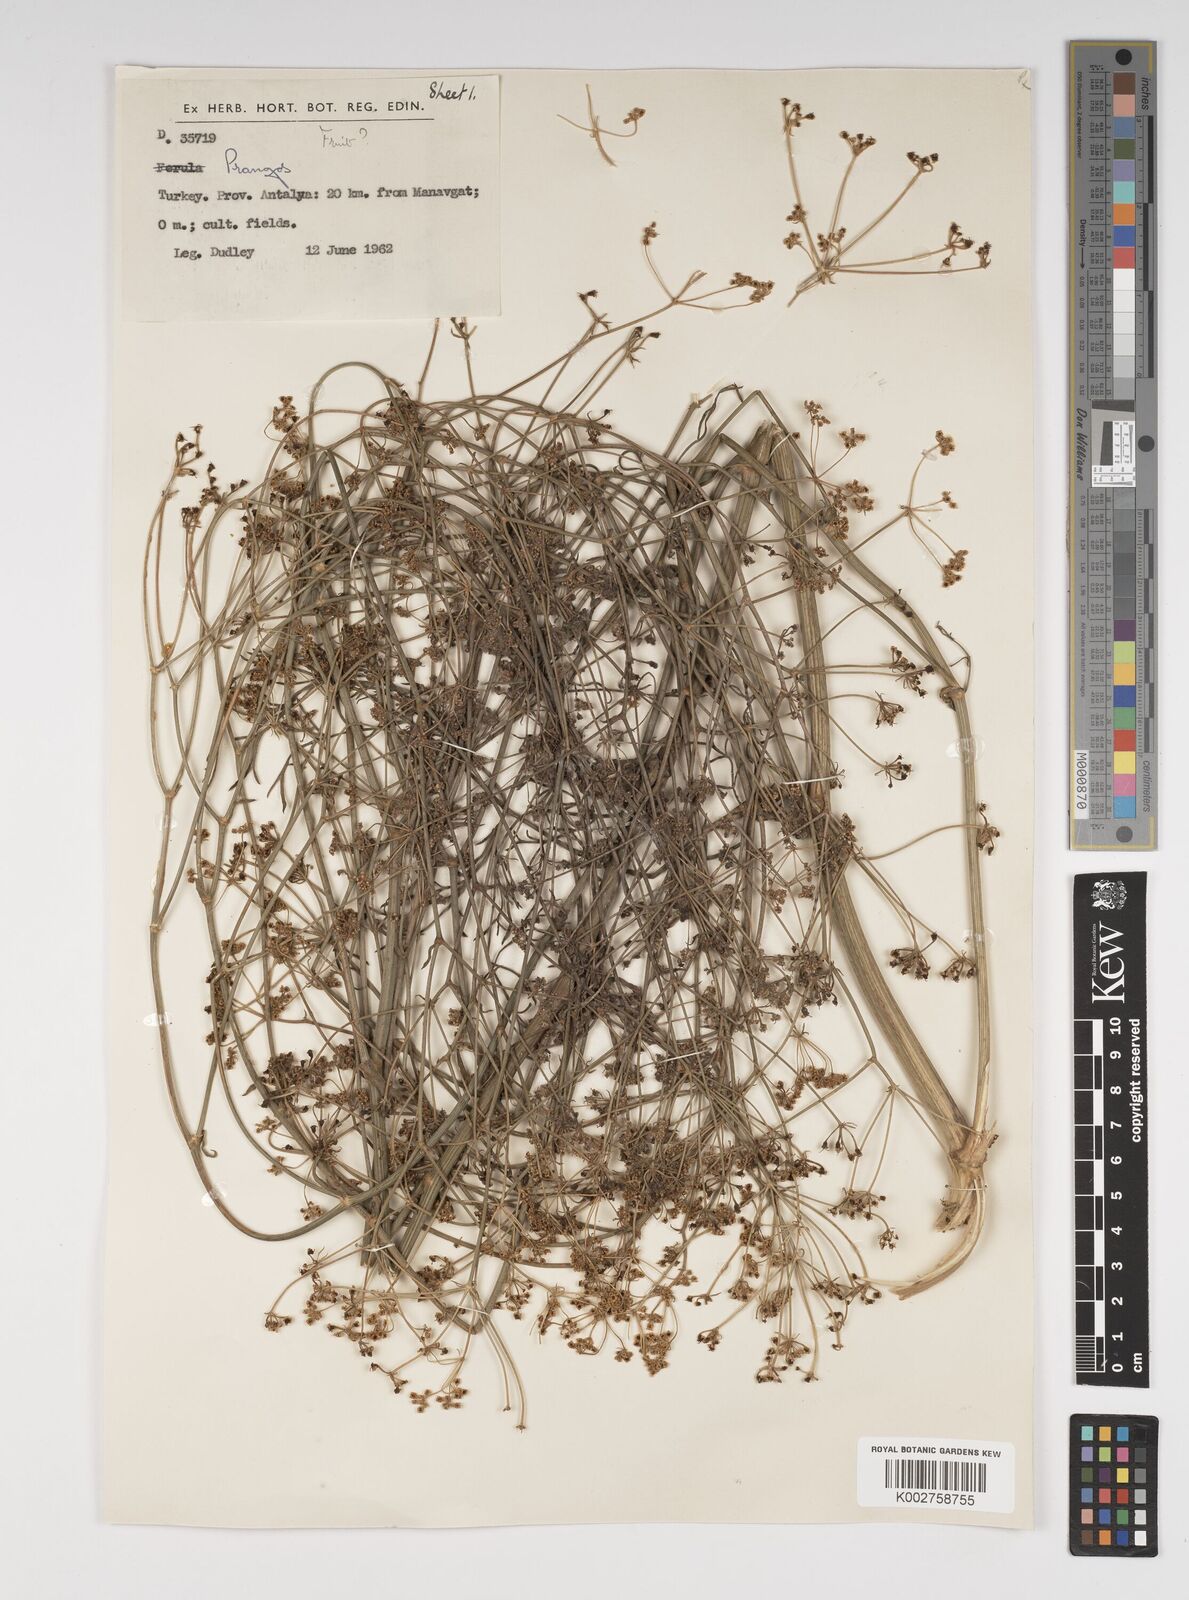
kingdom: Plantae
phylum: Tracheophyta
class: Magnoliopsida
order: Apiales
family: Apiaceae
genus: Cachrys
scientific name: Cachrys
